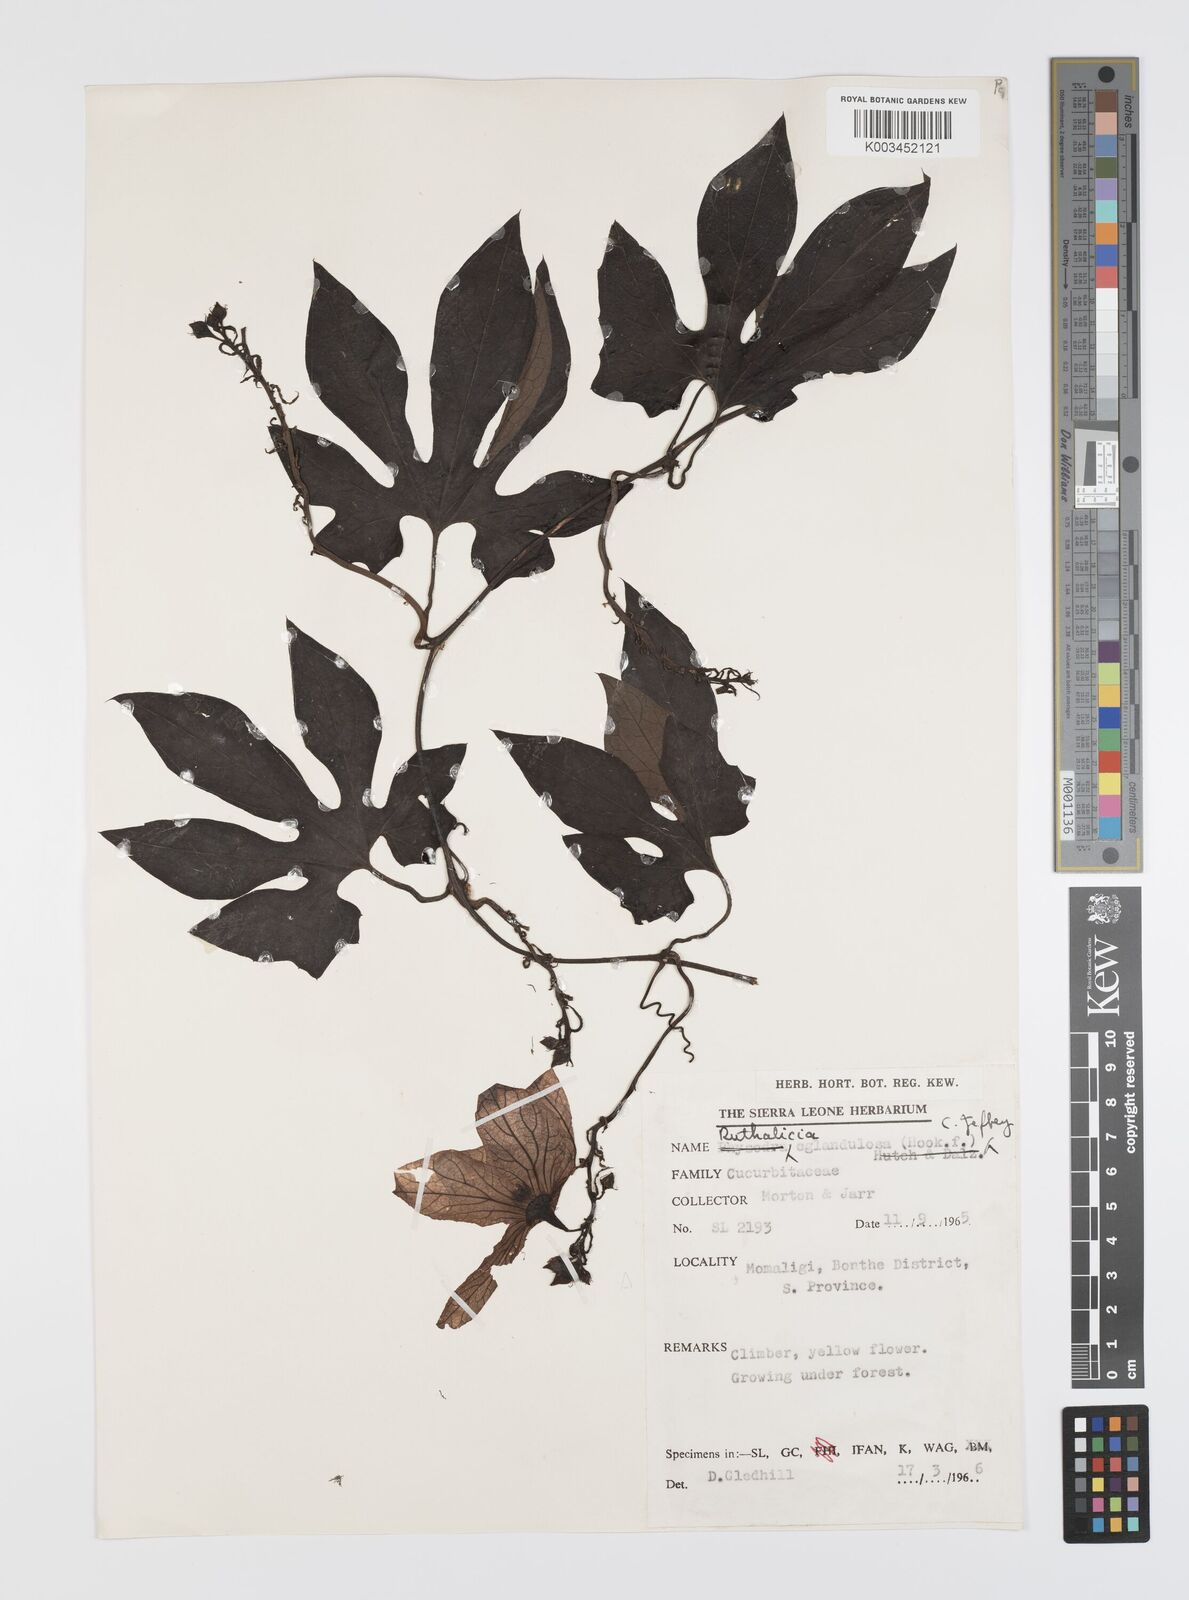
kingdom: Plantae
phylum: Tracheophyta
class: Magnoliopsida
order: Cucurbitales
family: Cucurbitaceae
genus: Ruthalicia
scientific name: Ruthalicia eglandulosa
